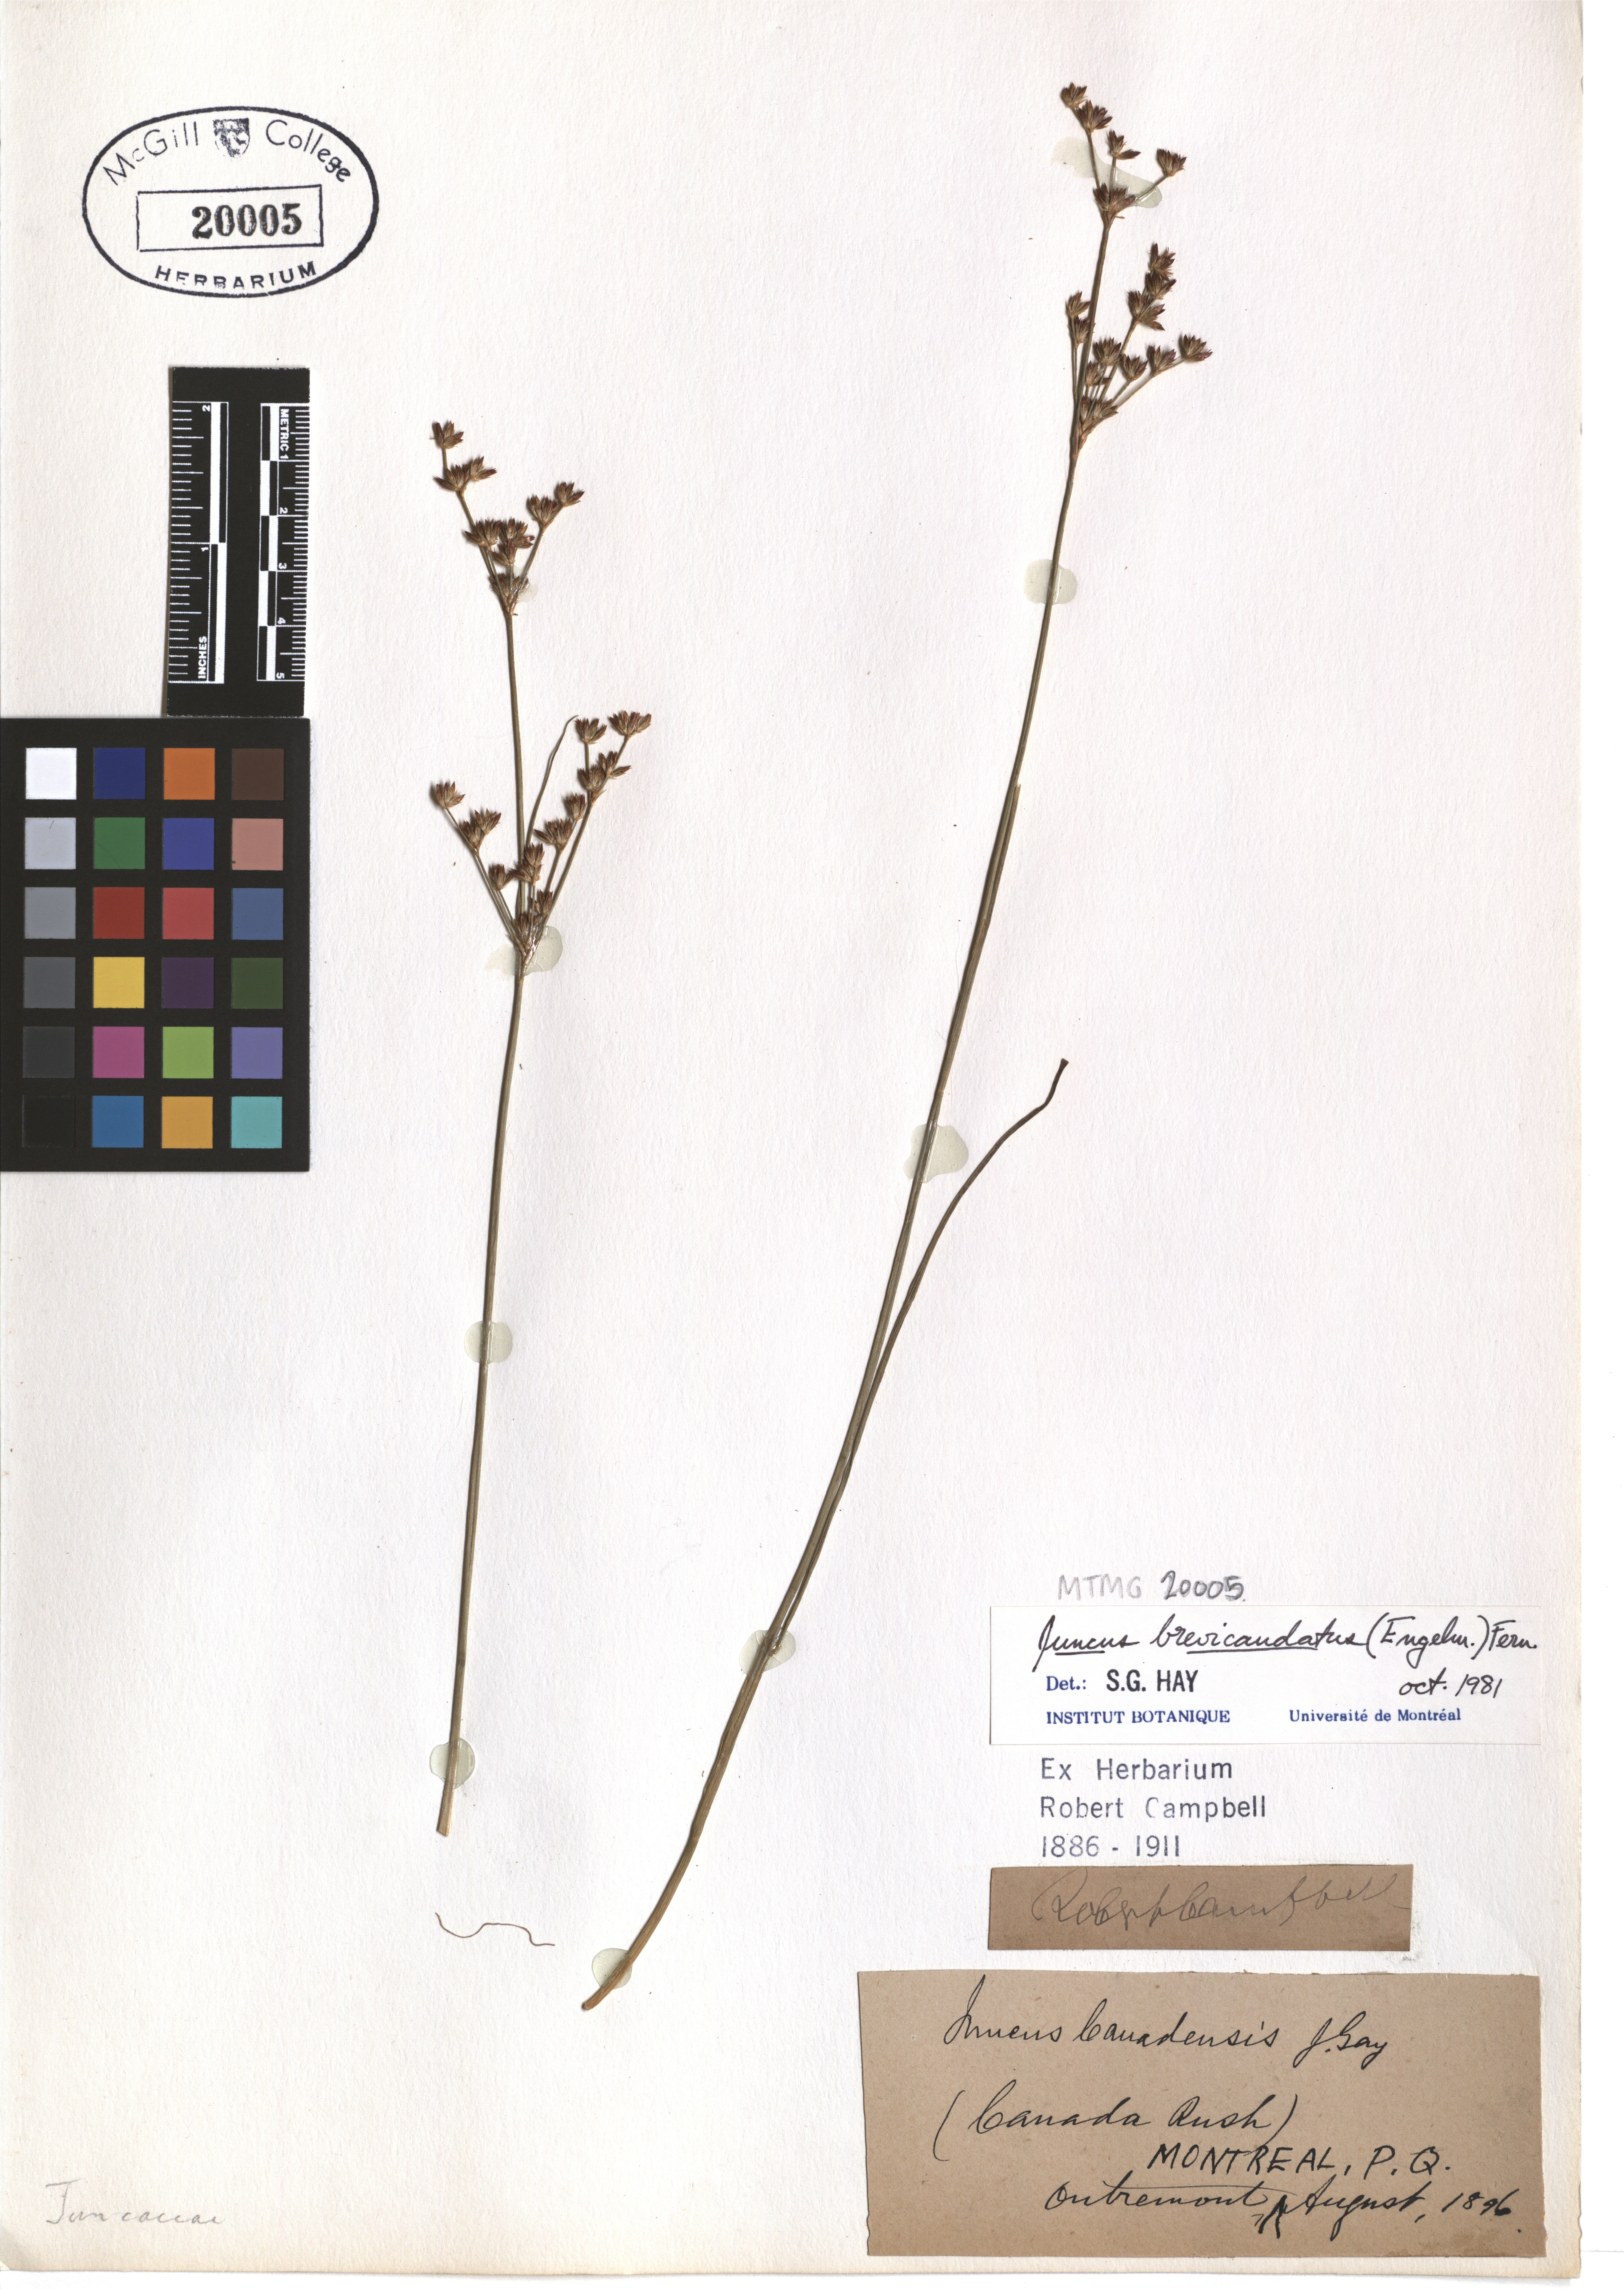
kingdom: Plantae
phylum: Tracheophyta
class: Liliopsida
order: Poales
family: Juncaceae
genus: Juncus
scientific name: Juncus brevicaudatus
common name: Narrow-panicle rush
